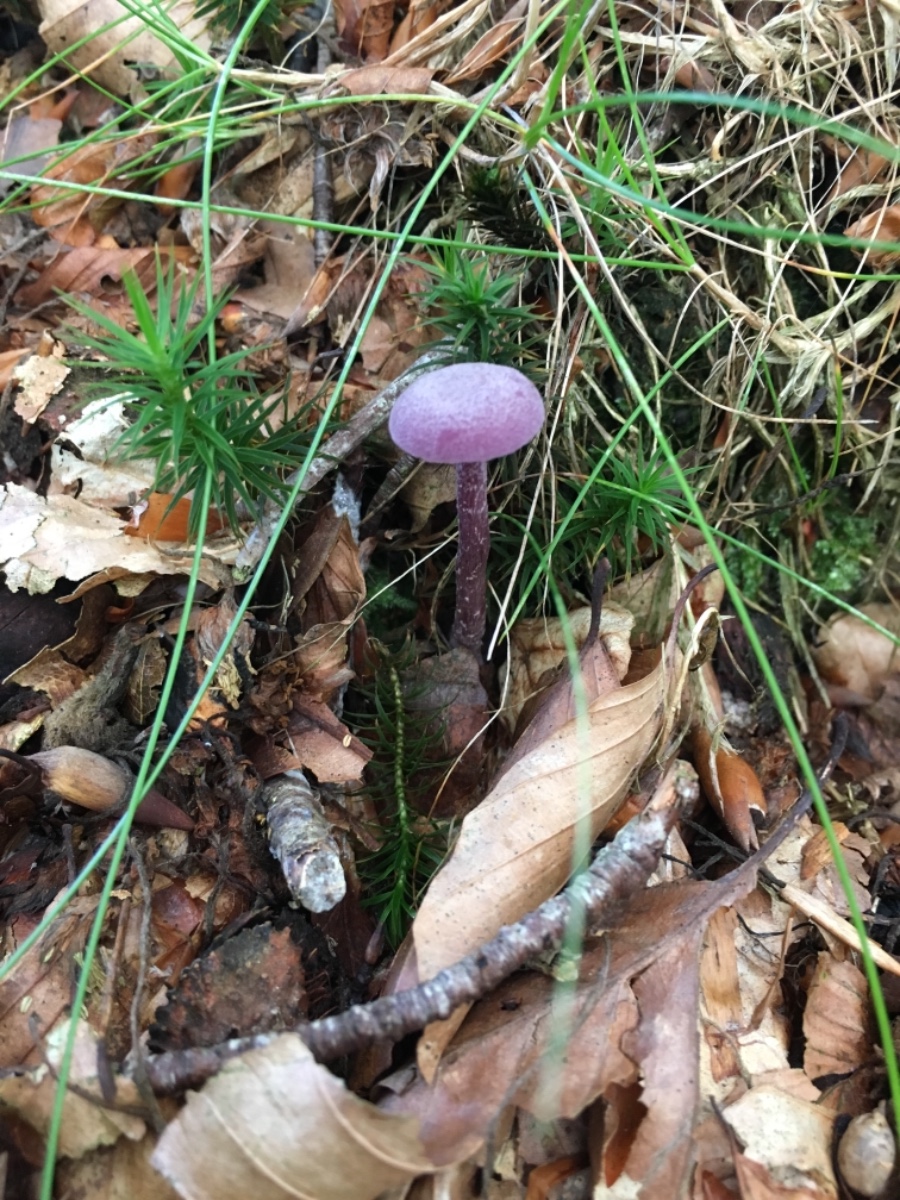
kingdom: Fungi
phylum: Basidiomycota
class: Agaricomycetes
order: Agaricales
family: Hydnangiaceae
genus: Laccaria
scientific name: Laccaria amethystina
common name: violet ametysthat
